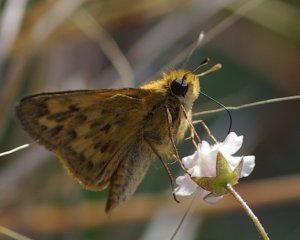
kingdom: Animalia
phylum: Arthropoda
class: Insecta
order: Lepidoptera
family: Hesperiidae
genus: Hylephila
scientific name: Hylephila phyleus
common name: Fiery Skipper
